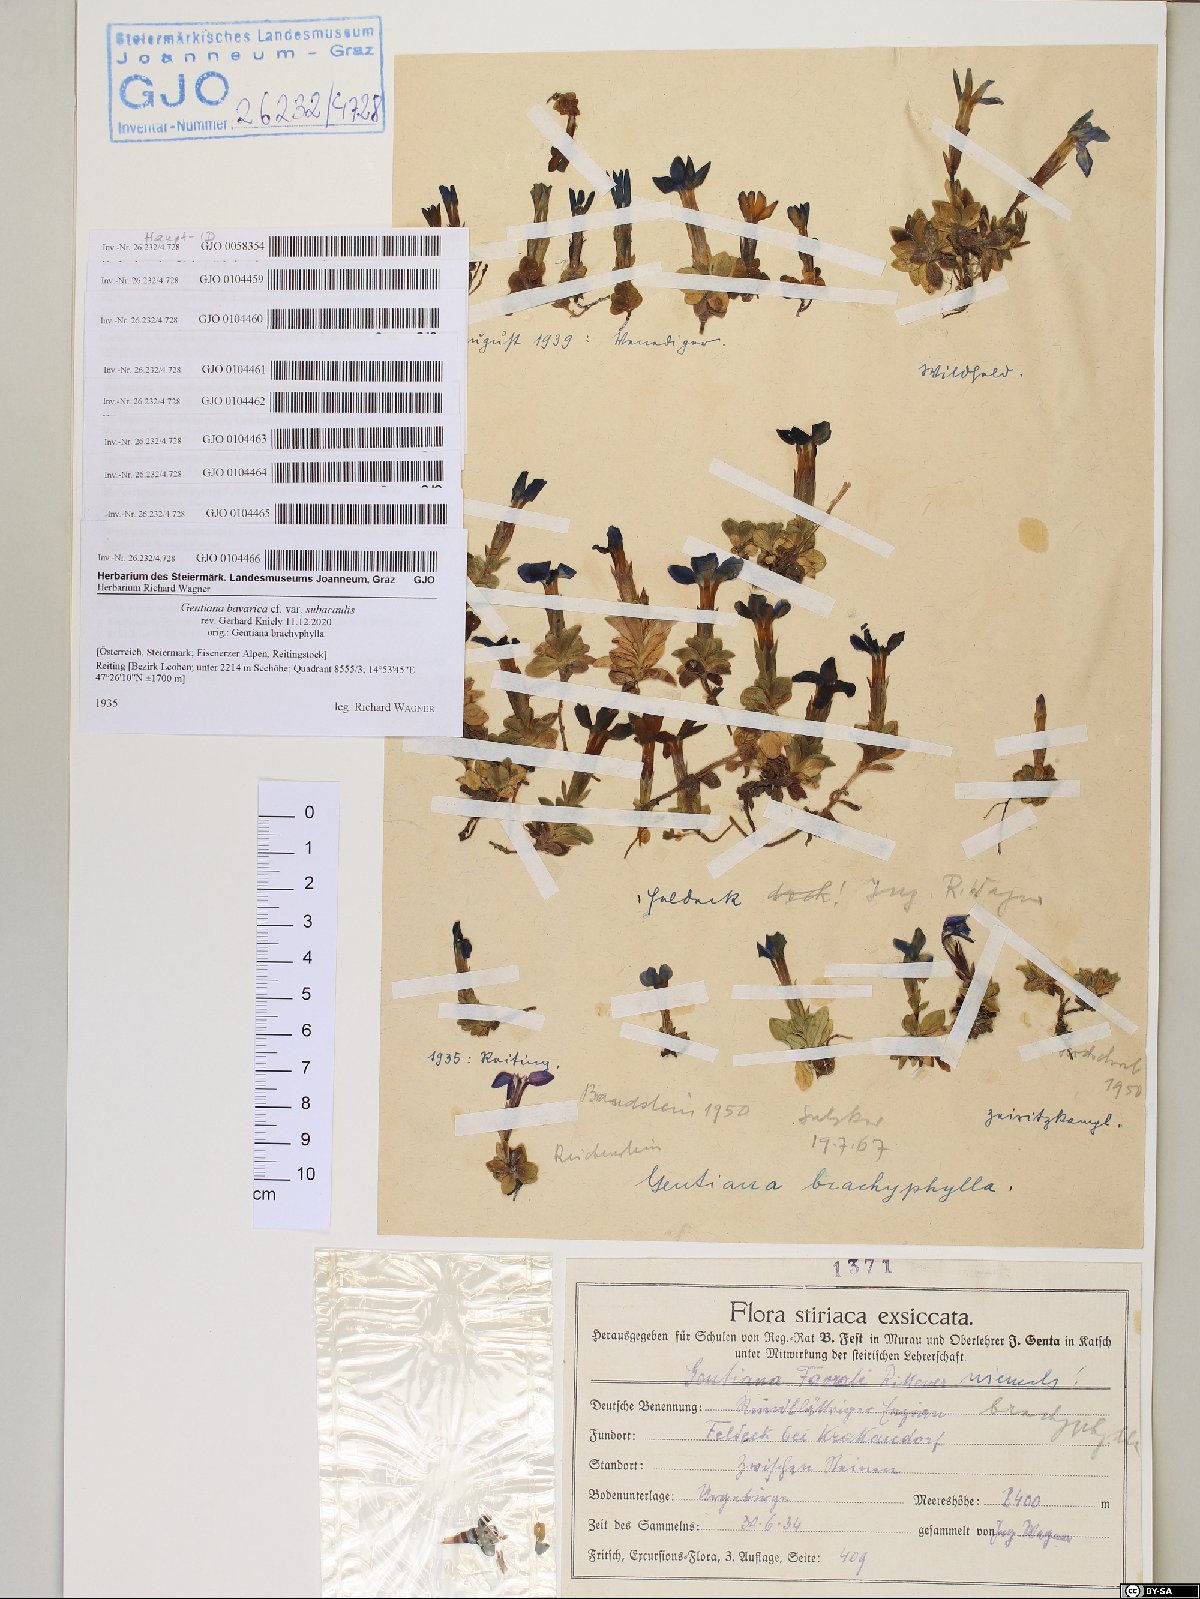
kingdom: Plantae
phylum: Tracheophyta
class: Magnoliopsida
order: Gentianales
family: Gentianaceae
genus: Gentiana
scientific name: Gentiana brachyphylla
